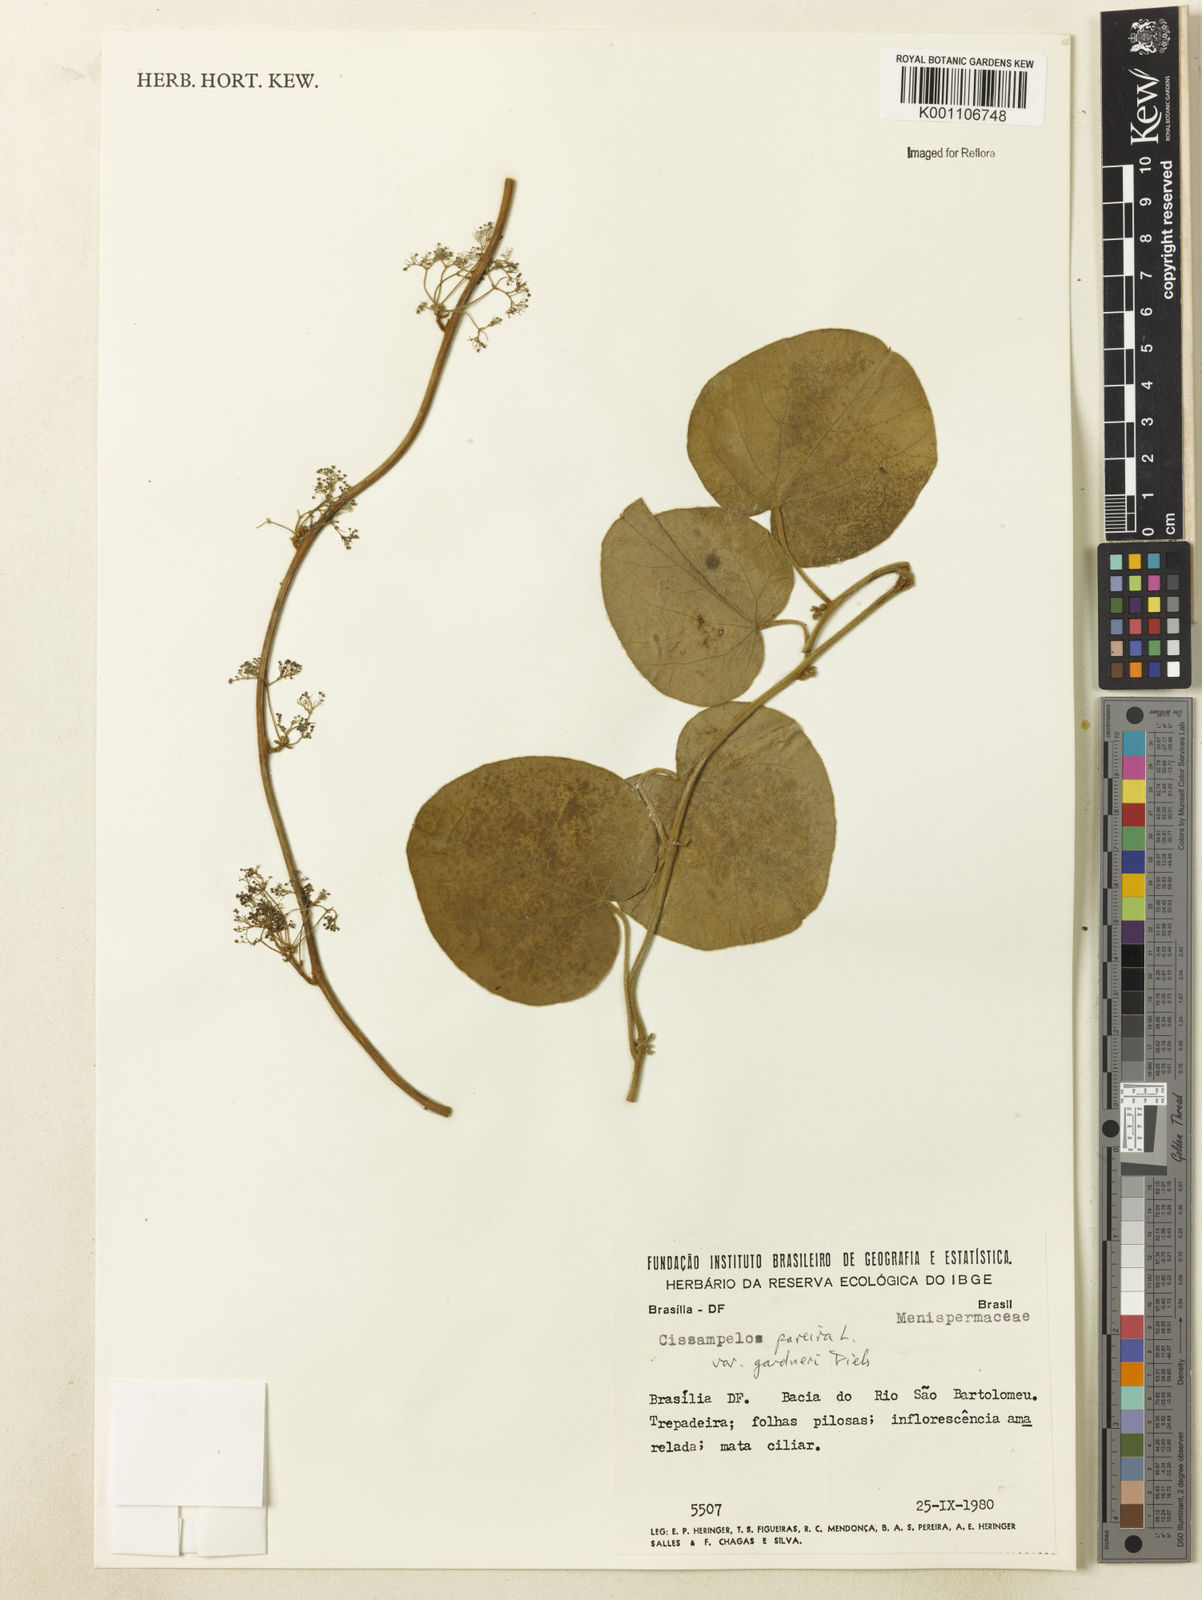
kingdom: Plantae
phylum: Tracheophyta
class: Magnoliopsida
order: Ranunculales
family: Menispermaceae
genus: Cissampelos
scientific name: Cissampelos pareira
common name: Velvetleaf
